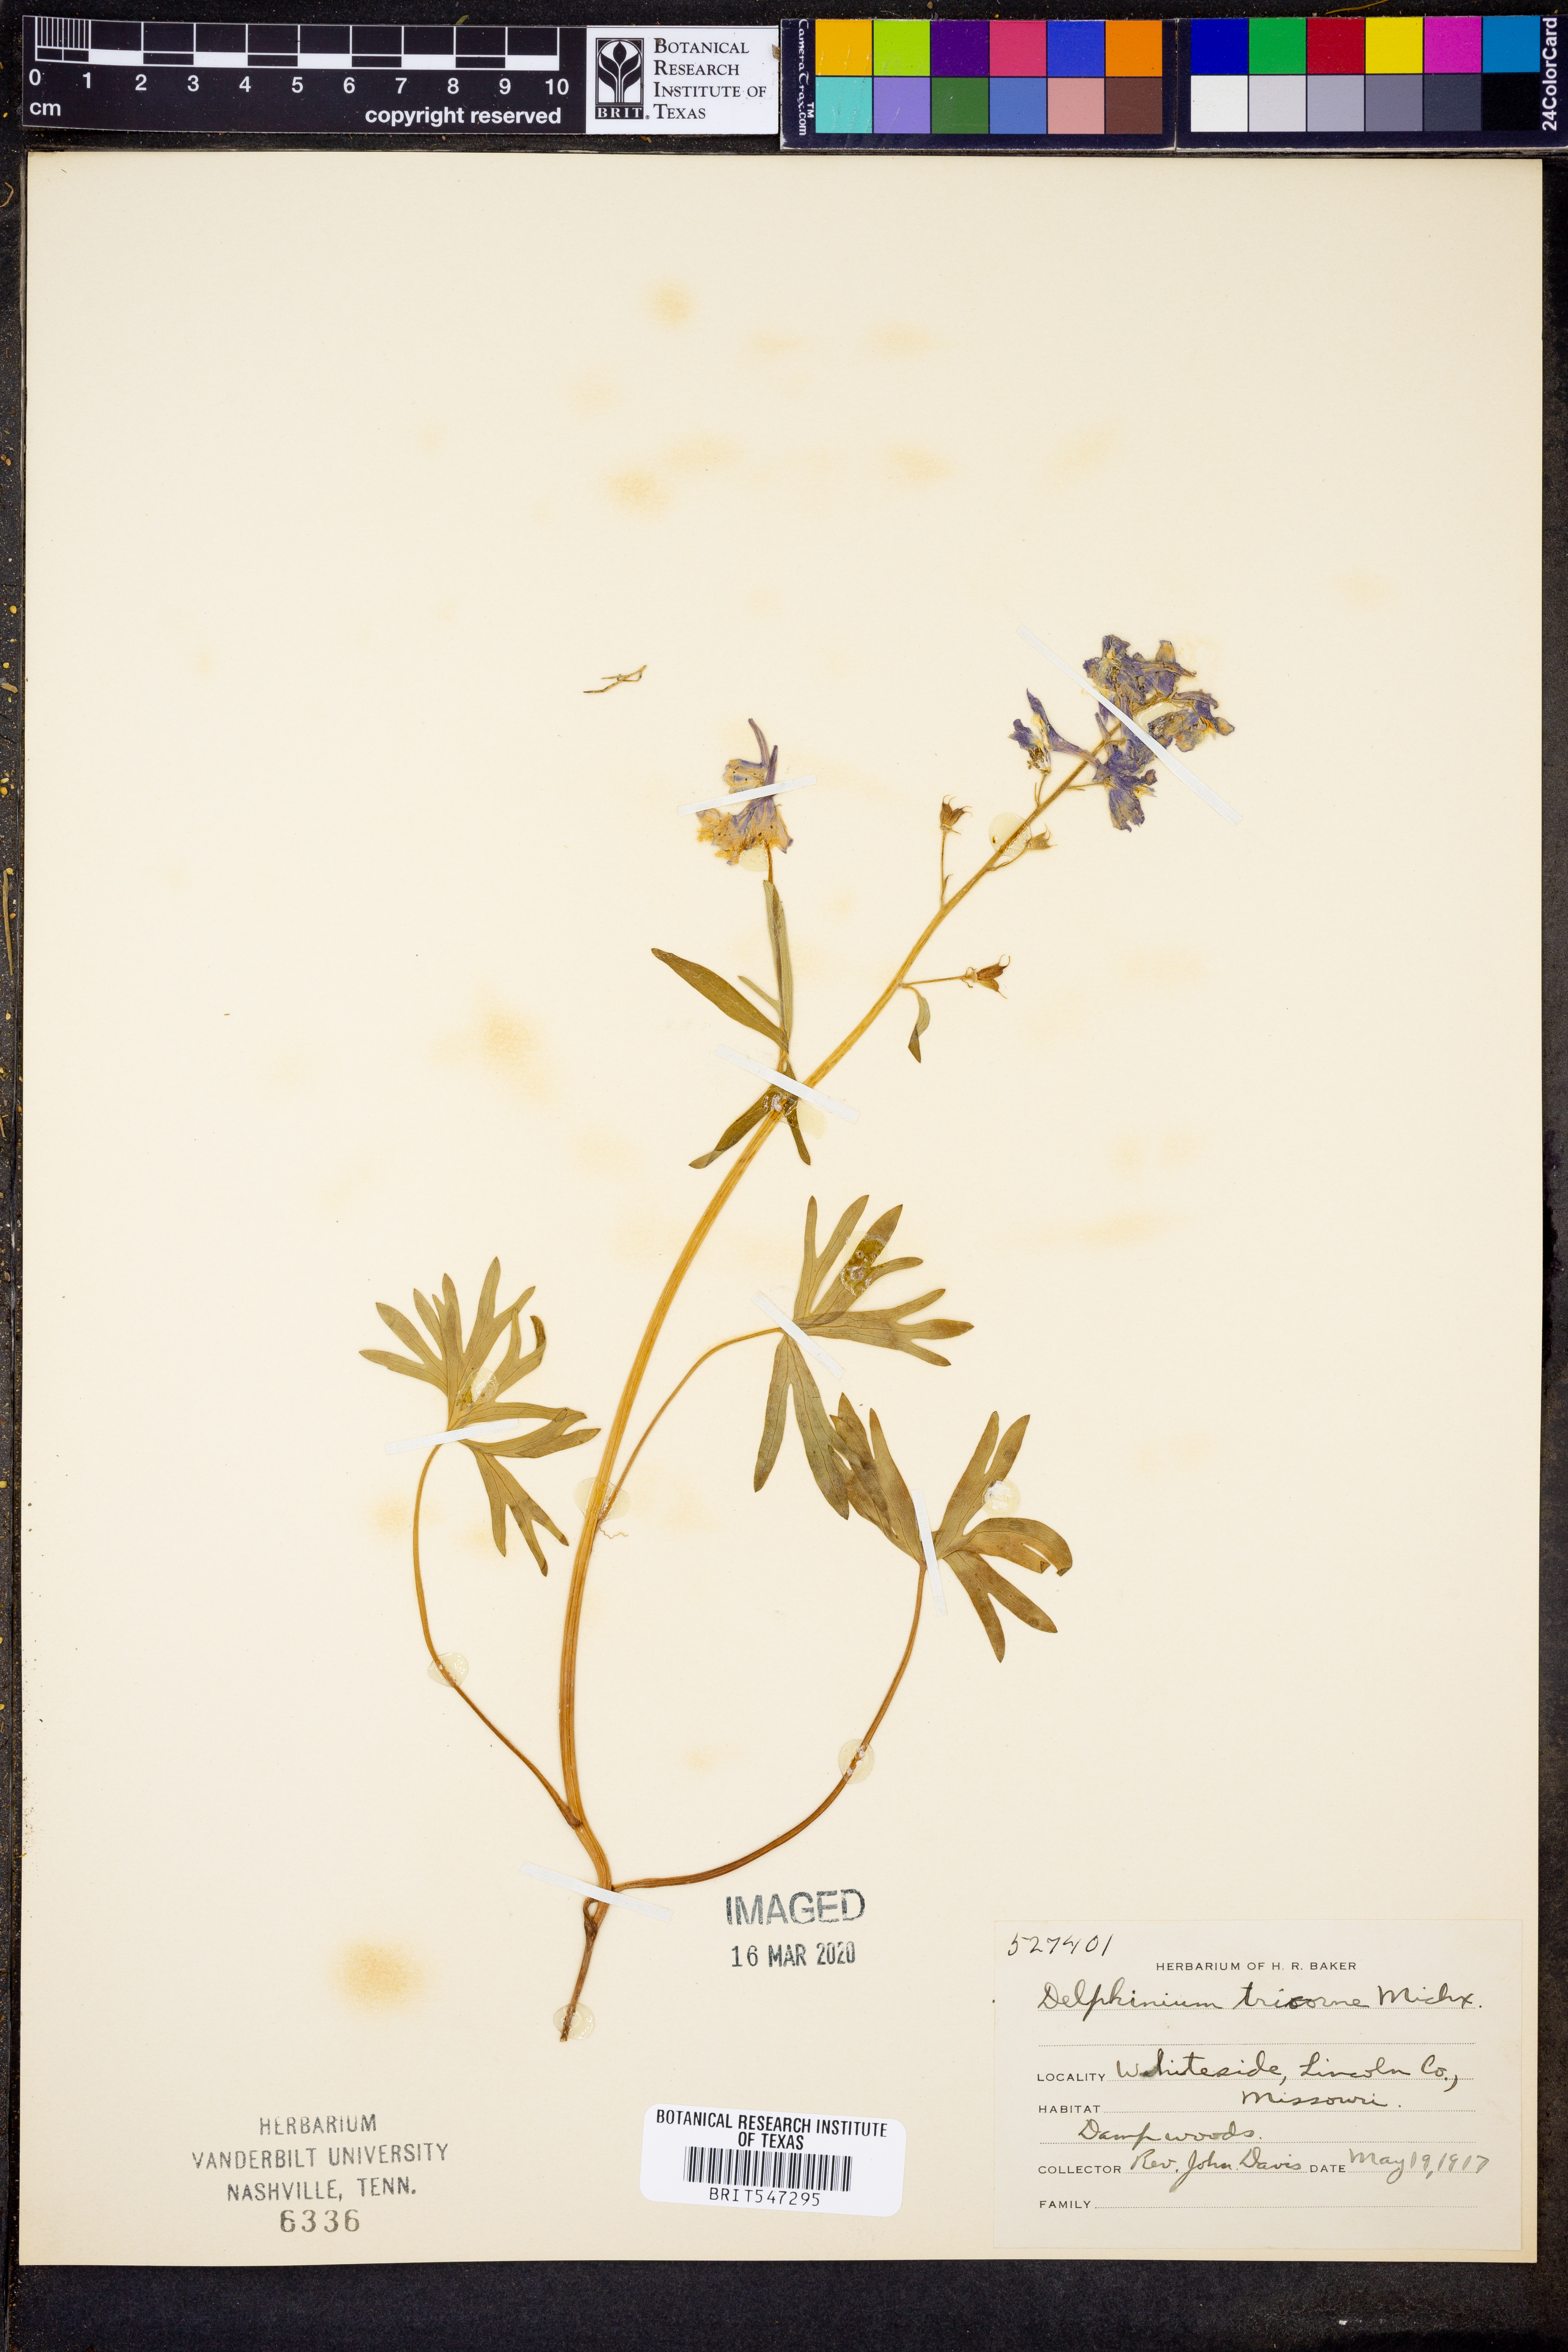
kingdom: Plantae
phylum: Tracheophyta
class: Magnoliopsida
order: Ranunculales
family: Ranunculaceae
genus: Delphinium
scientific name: Delphinium tricorne
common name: Dwarf larkspur
